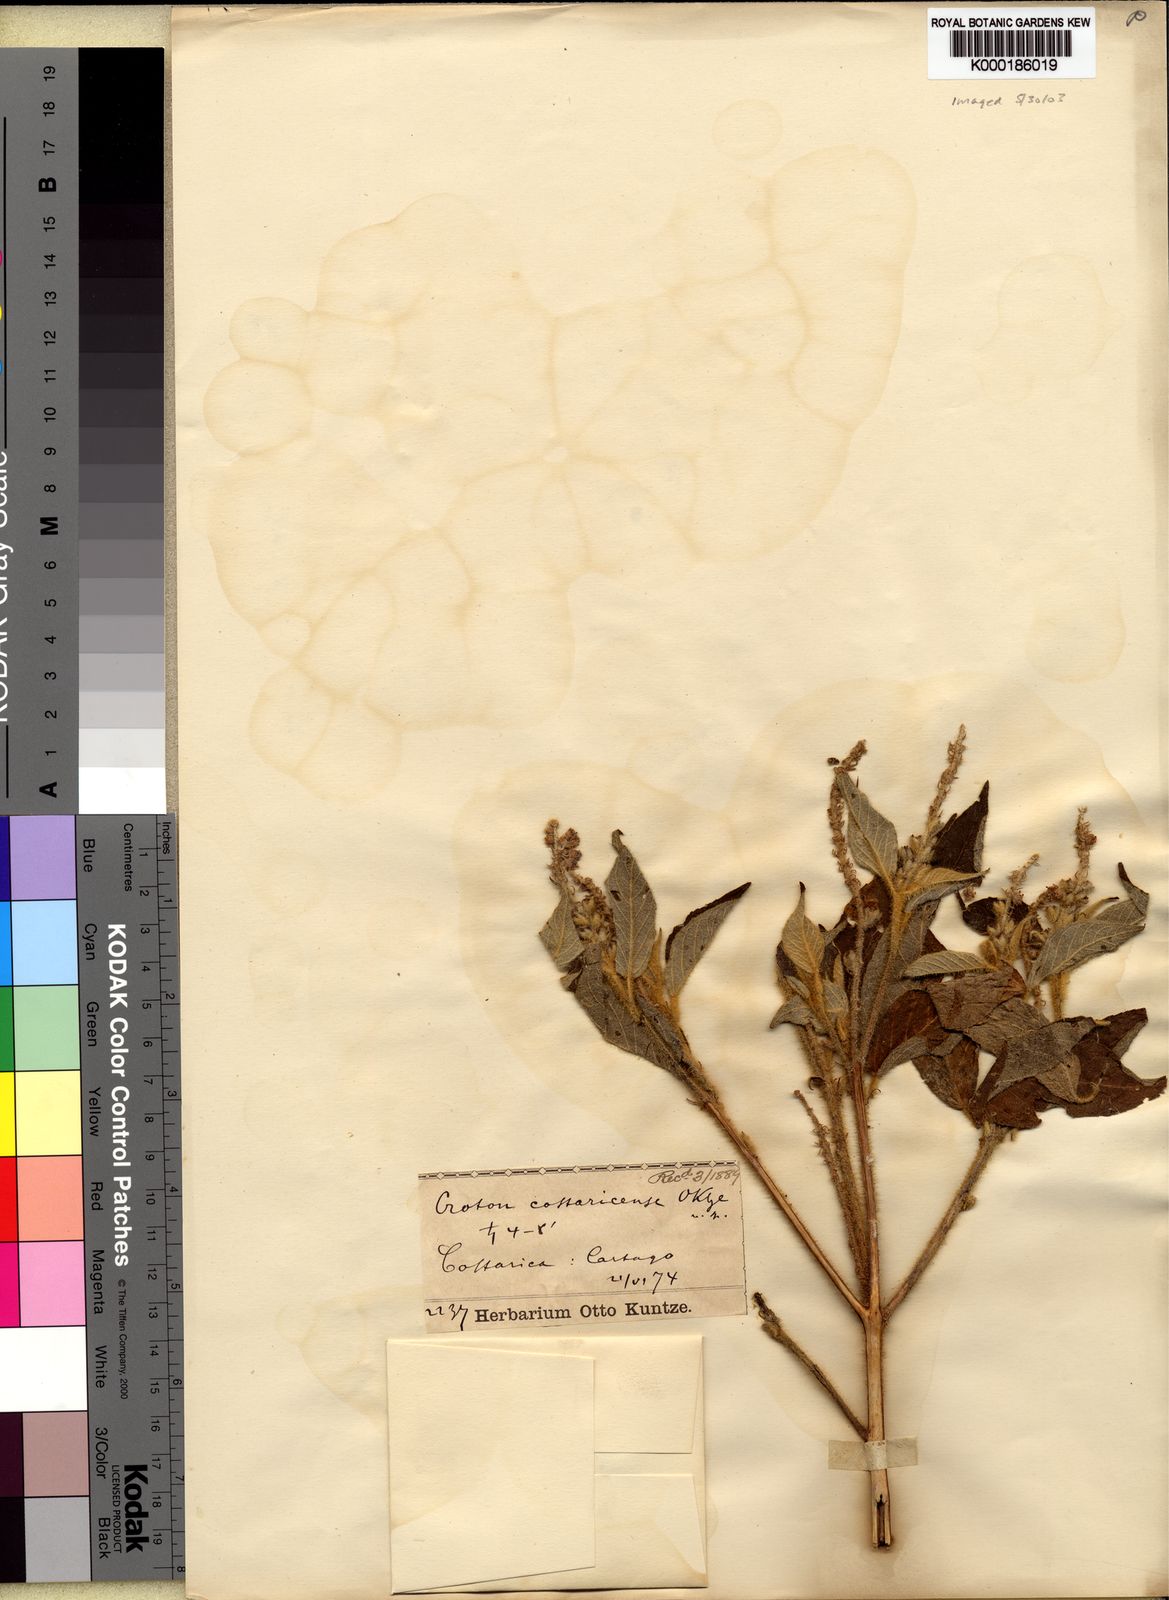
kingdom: Plantae
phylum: Tracheophyta
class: Magnoliopsida
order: Malpighiales
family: Euphorbiaceae
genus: Croton
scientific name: Croton
